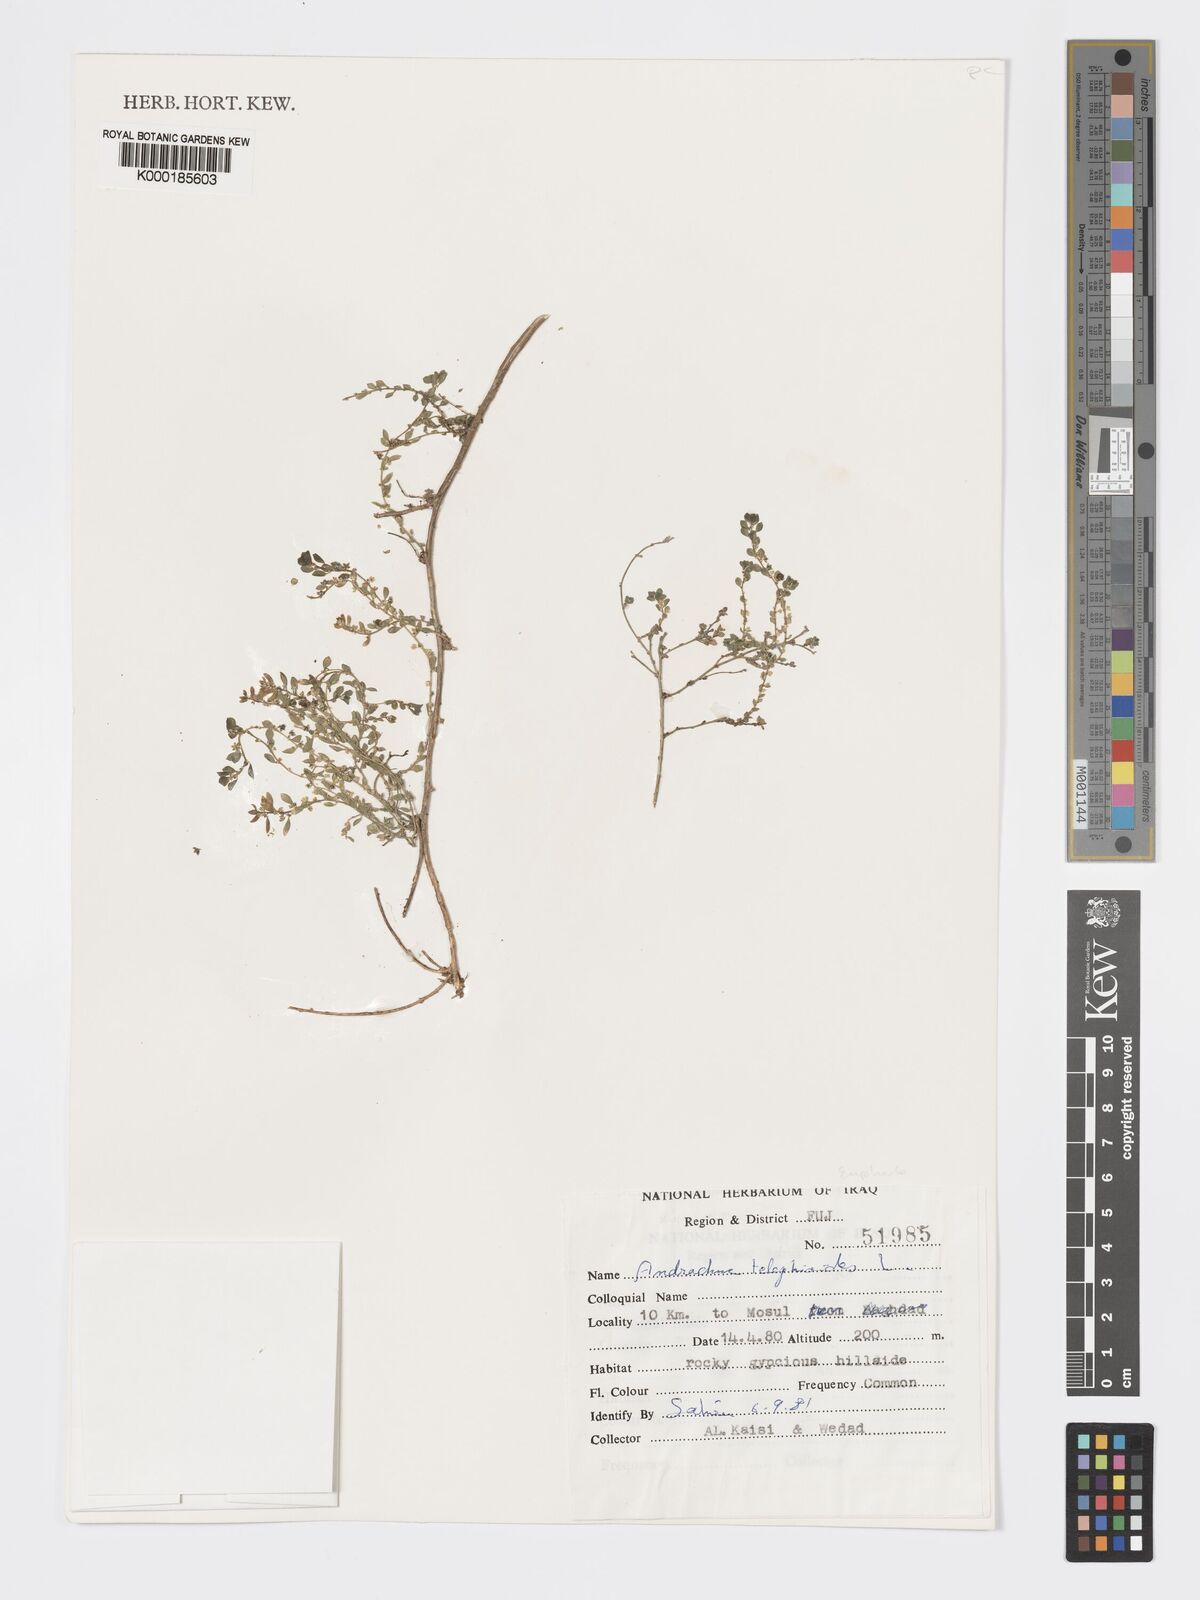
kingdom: Plantae
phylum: Tracheophyta
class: Magnoliopsida
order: Malpighiales
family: Phyllanthaceae
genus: Andrachne
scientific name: Andrachne telephioides
